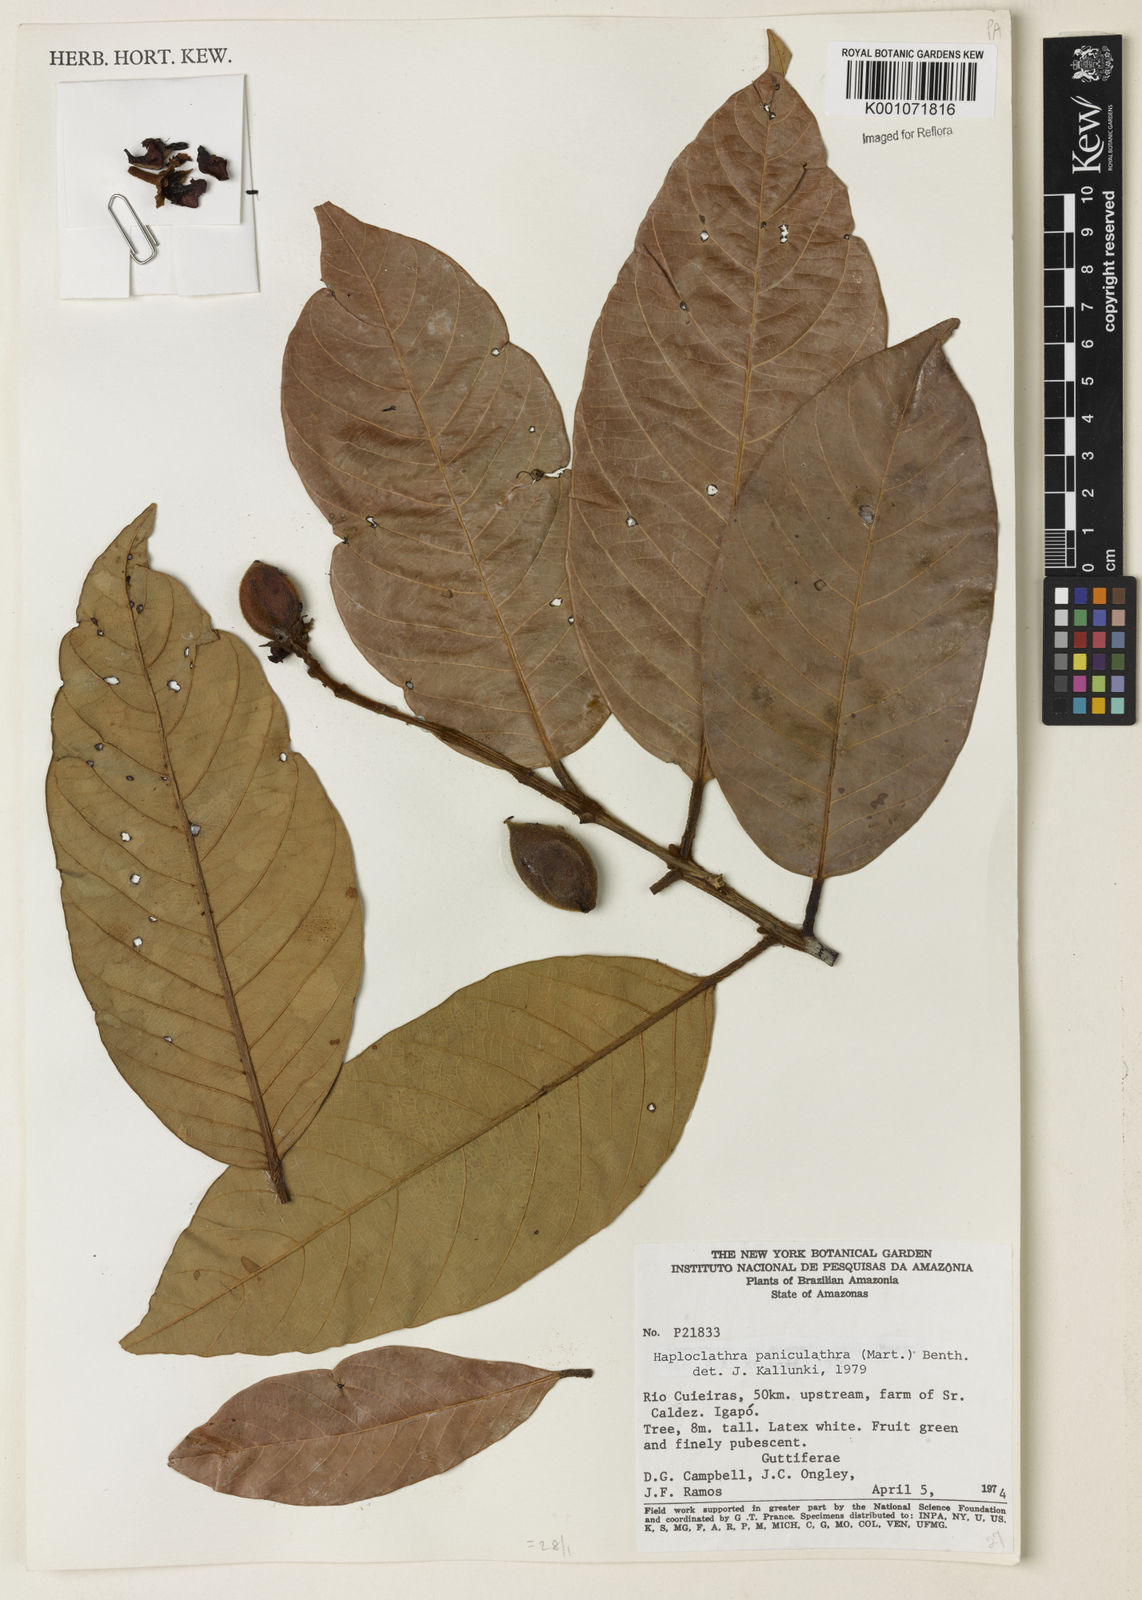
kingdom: Plantae
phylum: Tracheophyta
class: Magnoliopsida
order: Malpighiales
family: Calophyllaceae
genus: Haploclathra
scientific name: Haploclathra paniculata
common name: Red-wood
